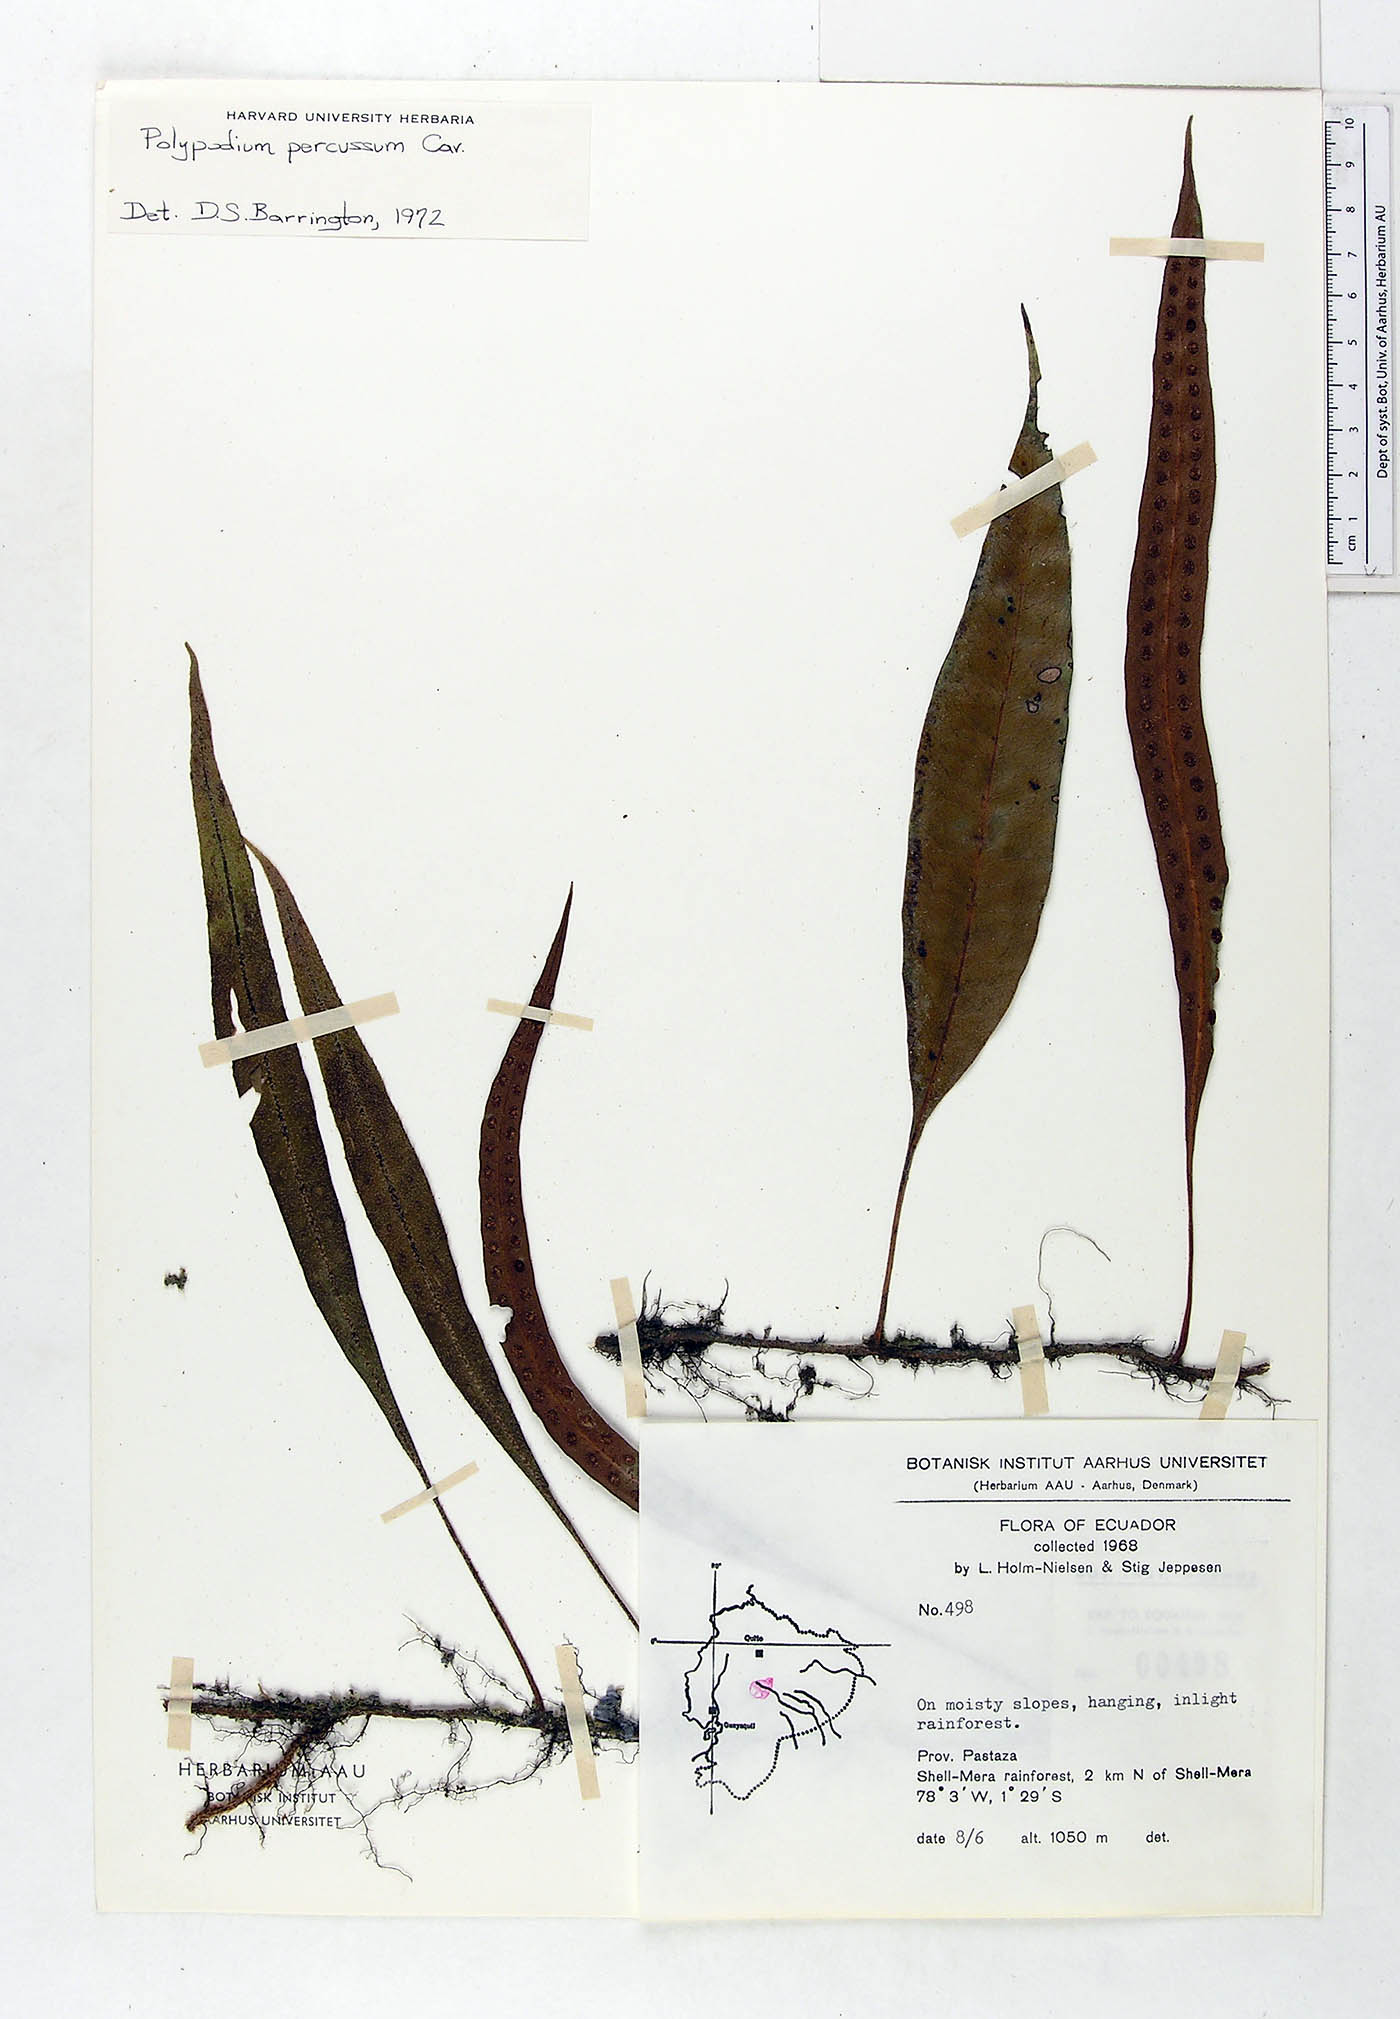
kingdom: Plantae
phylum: Tracheophyta
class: Polypodiopsida
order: Polypodiales
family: Polypodiaceae
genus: Microgramma
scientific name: Microgramma percussa
